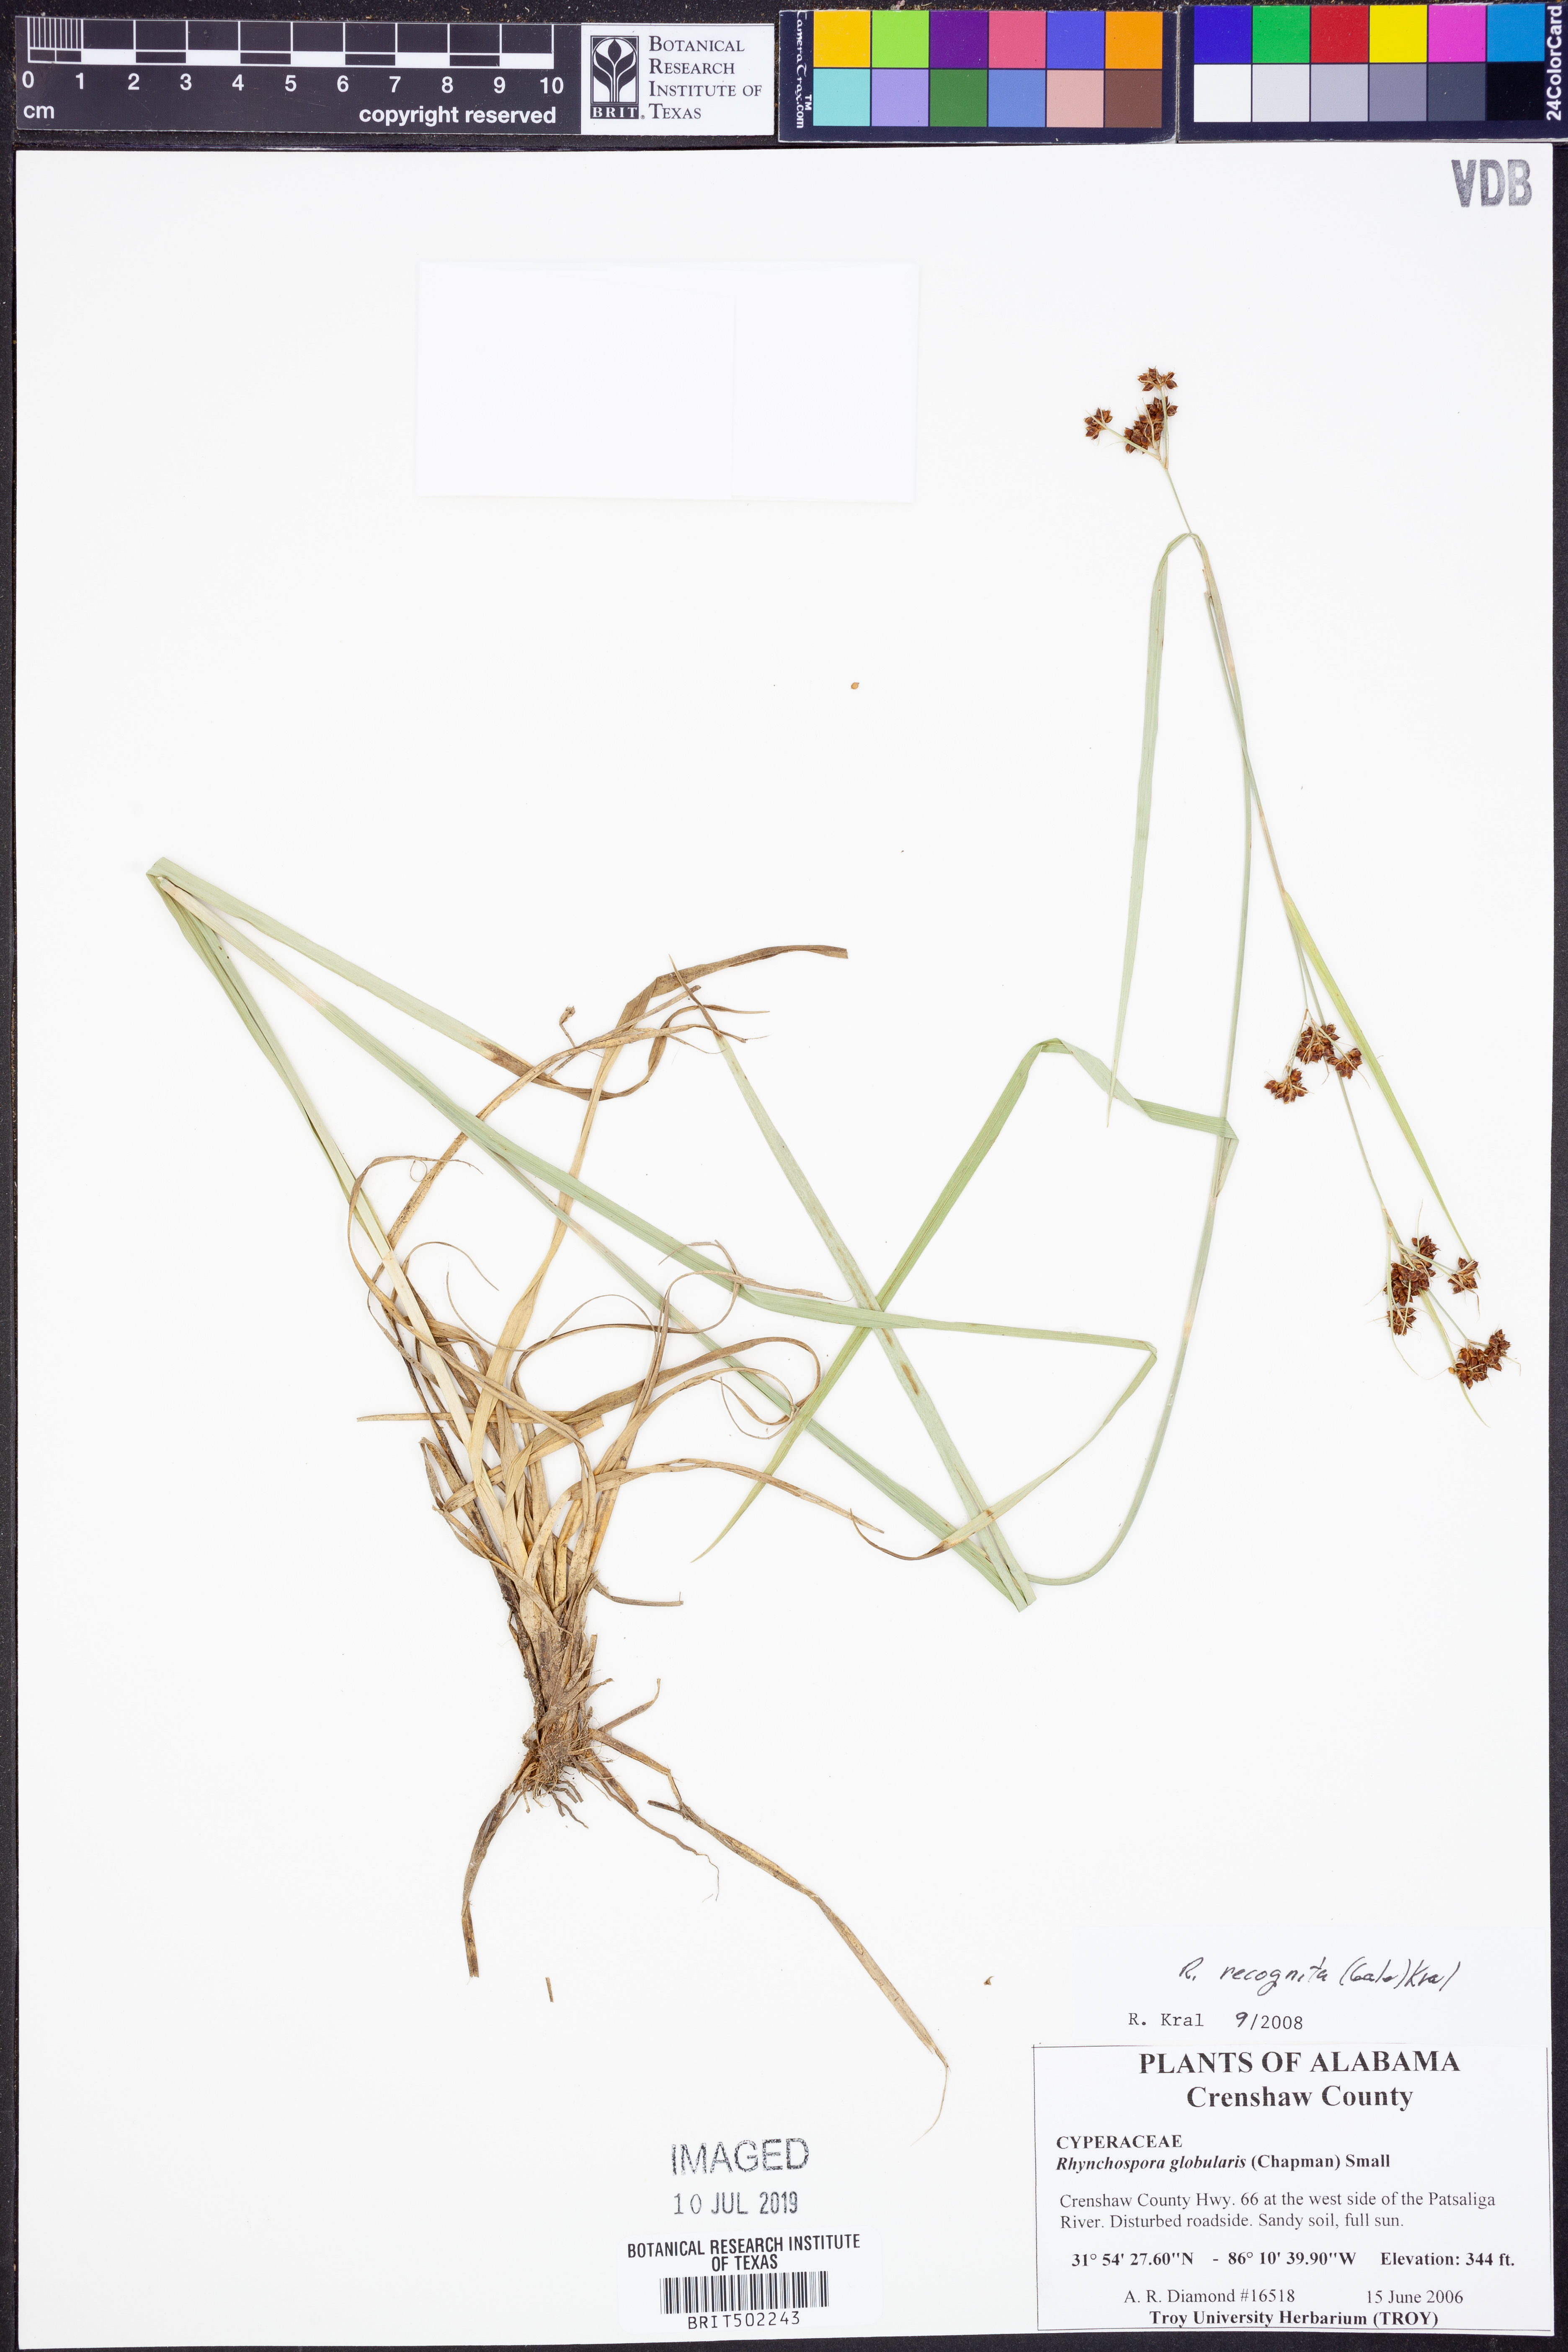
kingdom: Plantae
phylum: Tracheophyta
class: Liliopsida
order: Poales
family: Cyperaceae
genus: Rhynchospora
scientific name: Rhynchospora recognita
